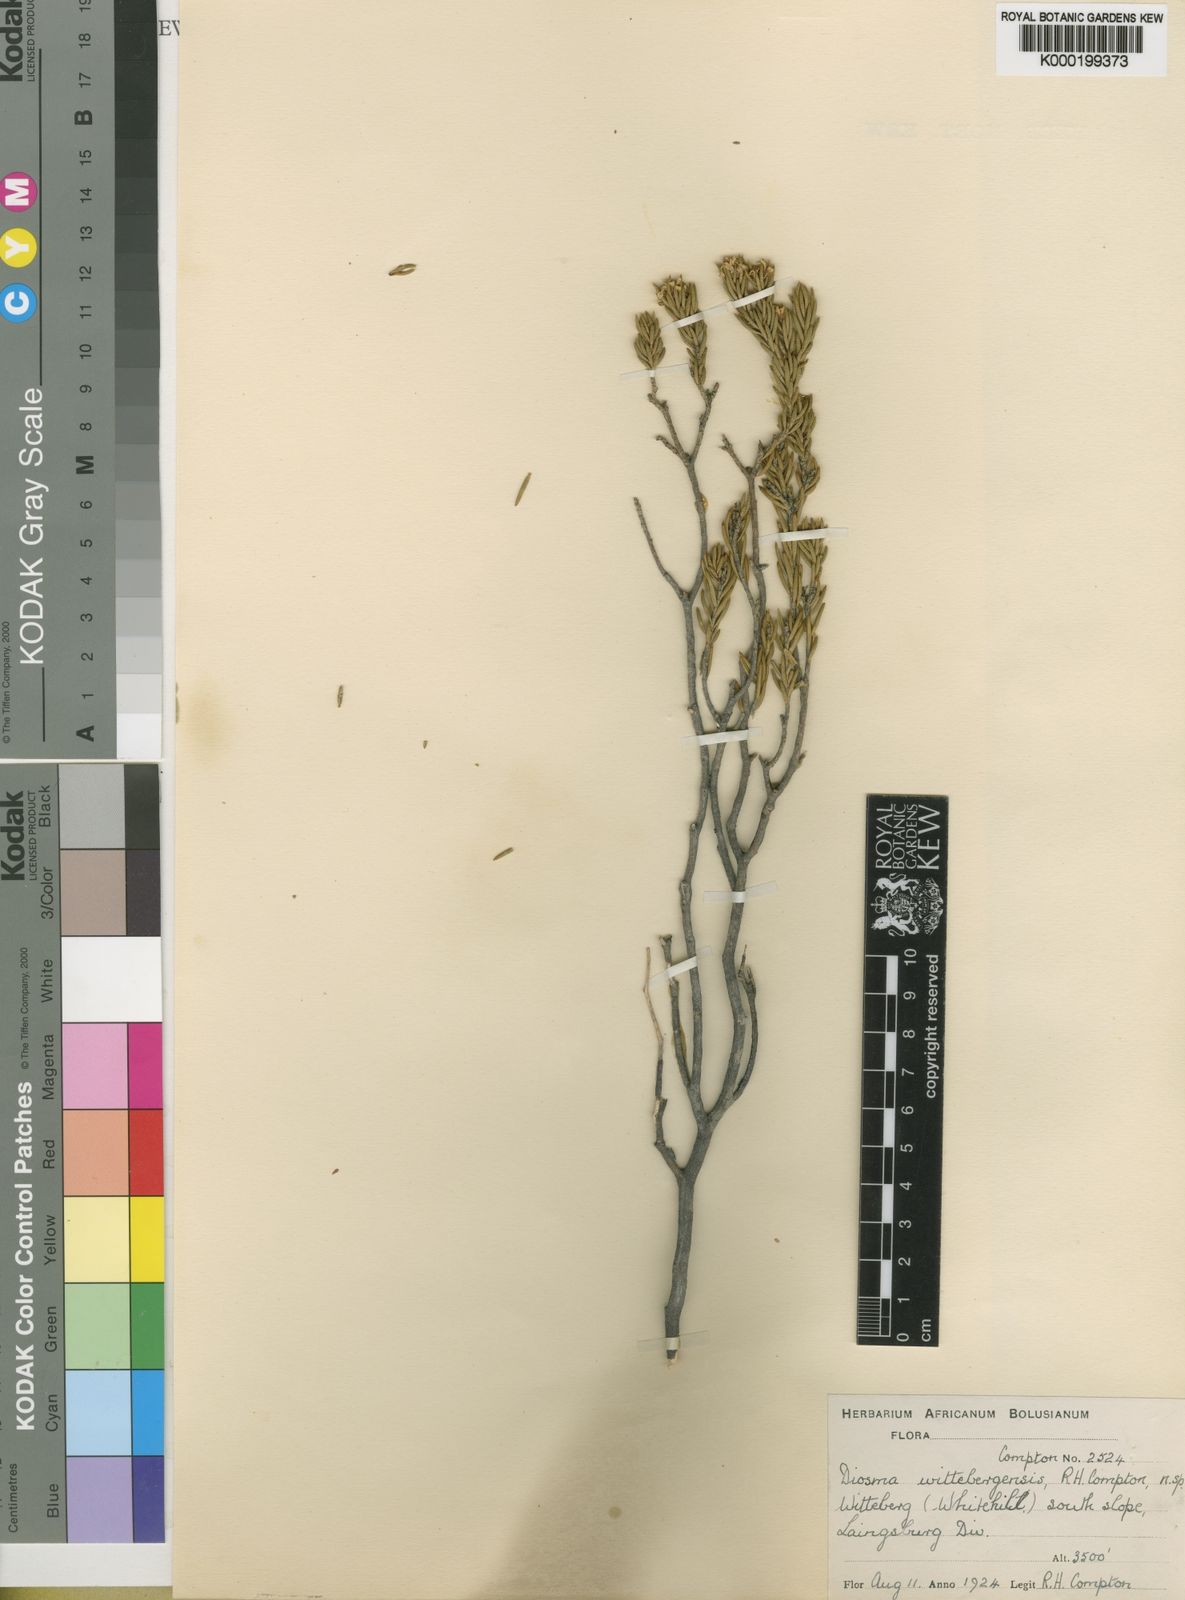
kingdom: Plantae
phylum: Tracheophyta
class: Magnoliopsida
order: Sapindales
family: Rutaceae
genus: Acradenia
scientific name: Acradenia
